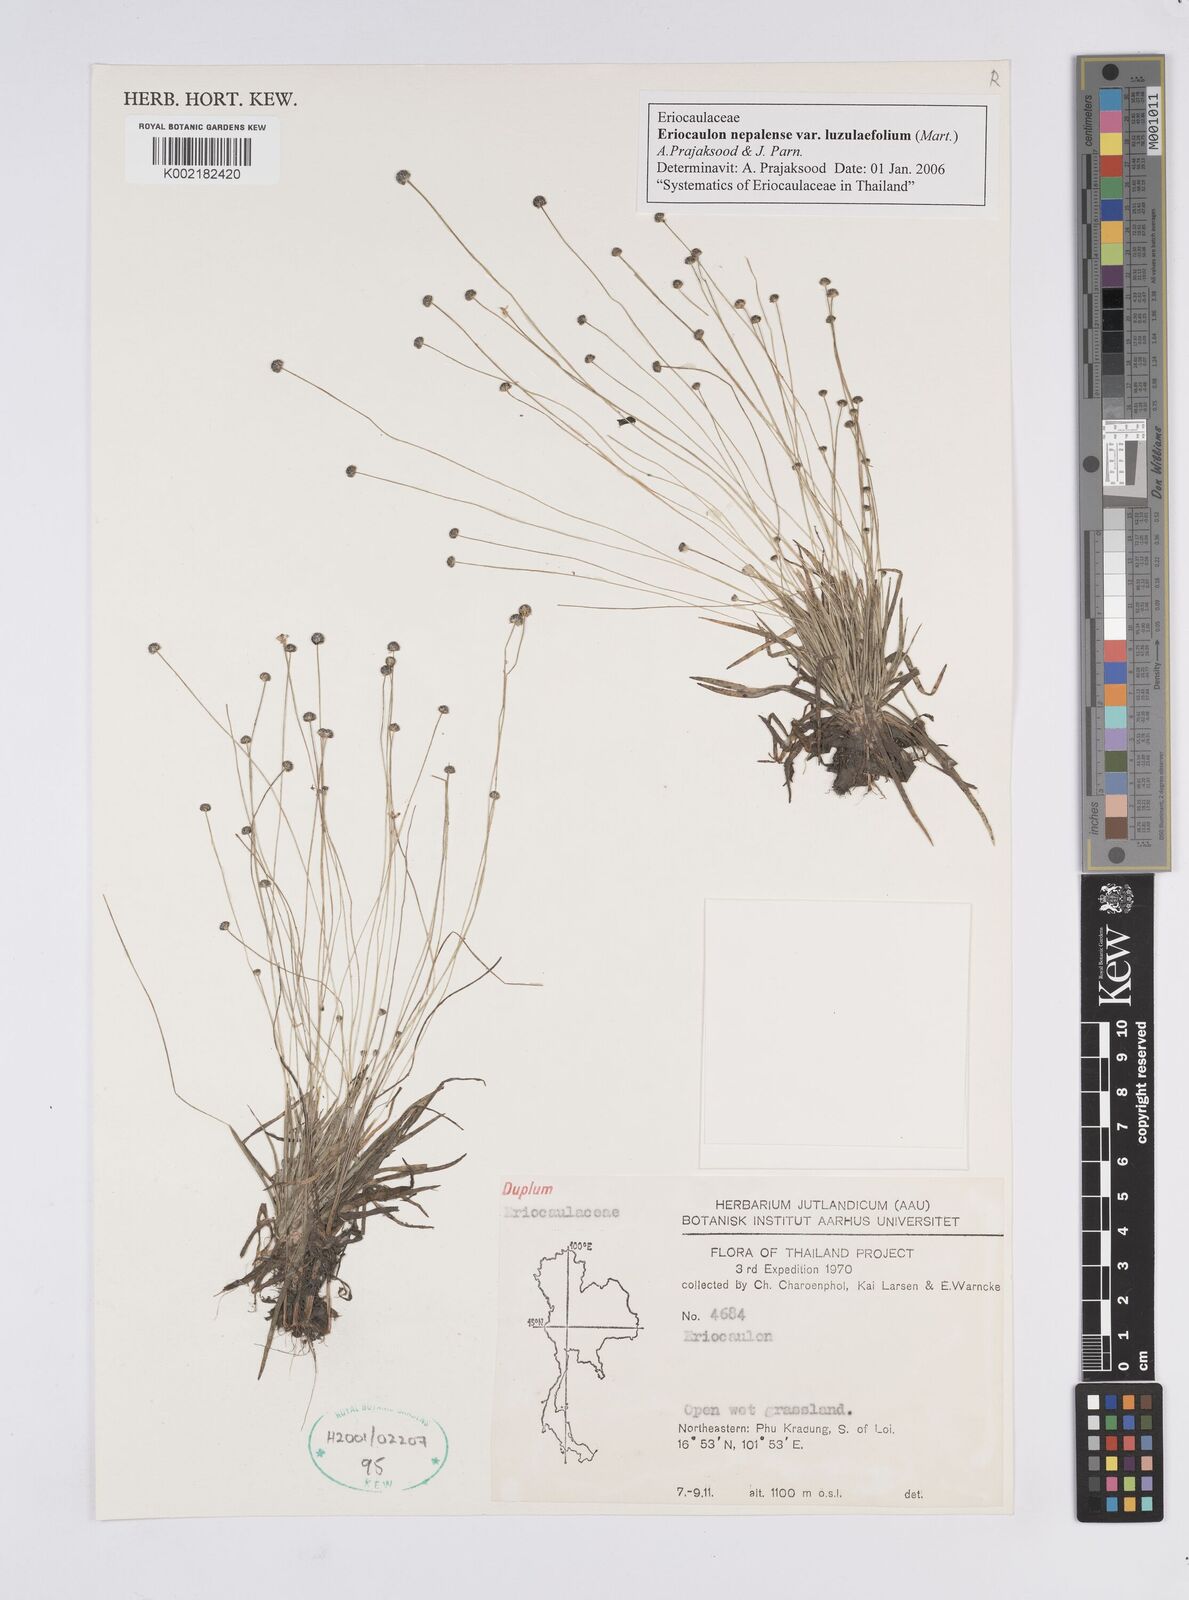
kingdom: Plantae
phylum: Tracheophyta
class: Liliopsida
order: Poales
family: Eriocaulaceae
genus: Eriocaulon
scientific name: Eriocaulon nepalense
